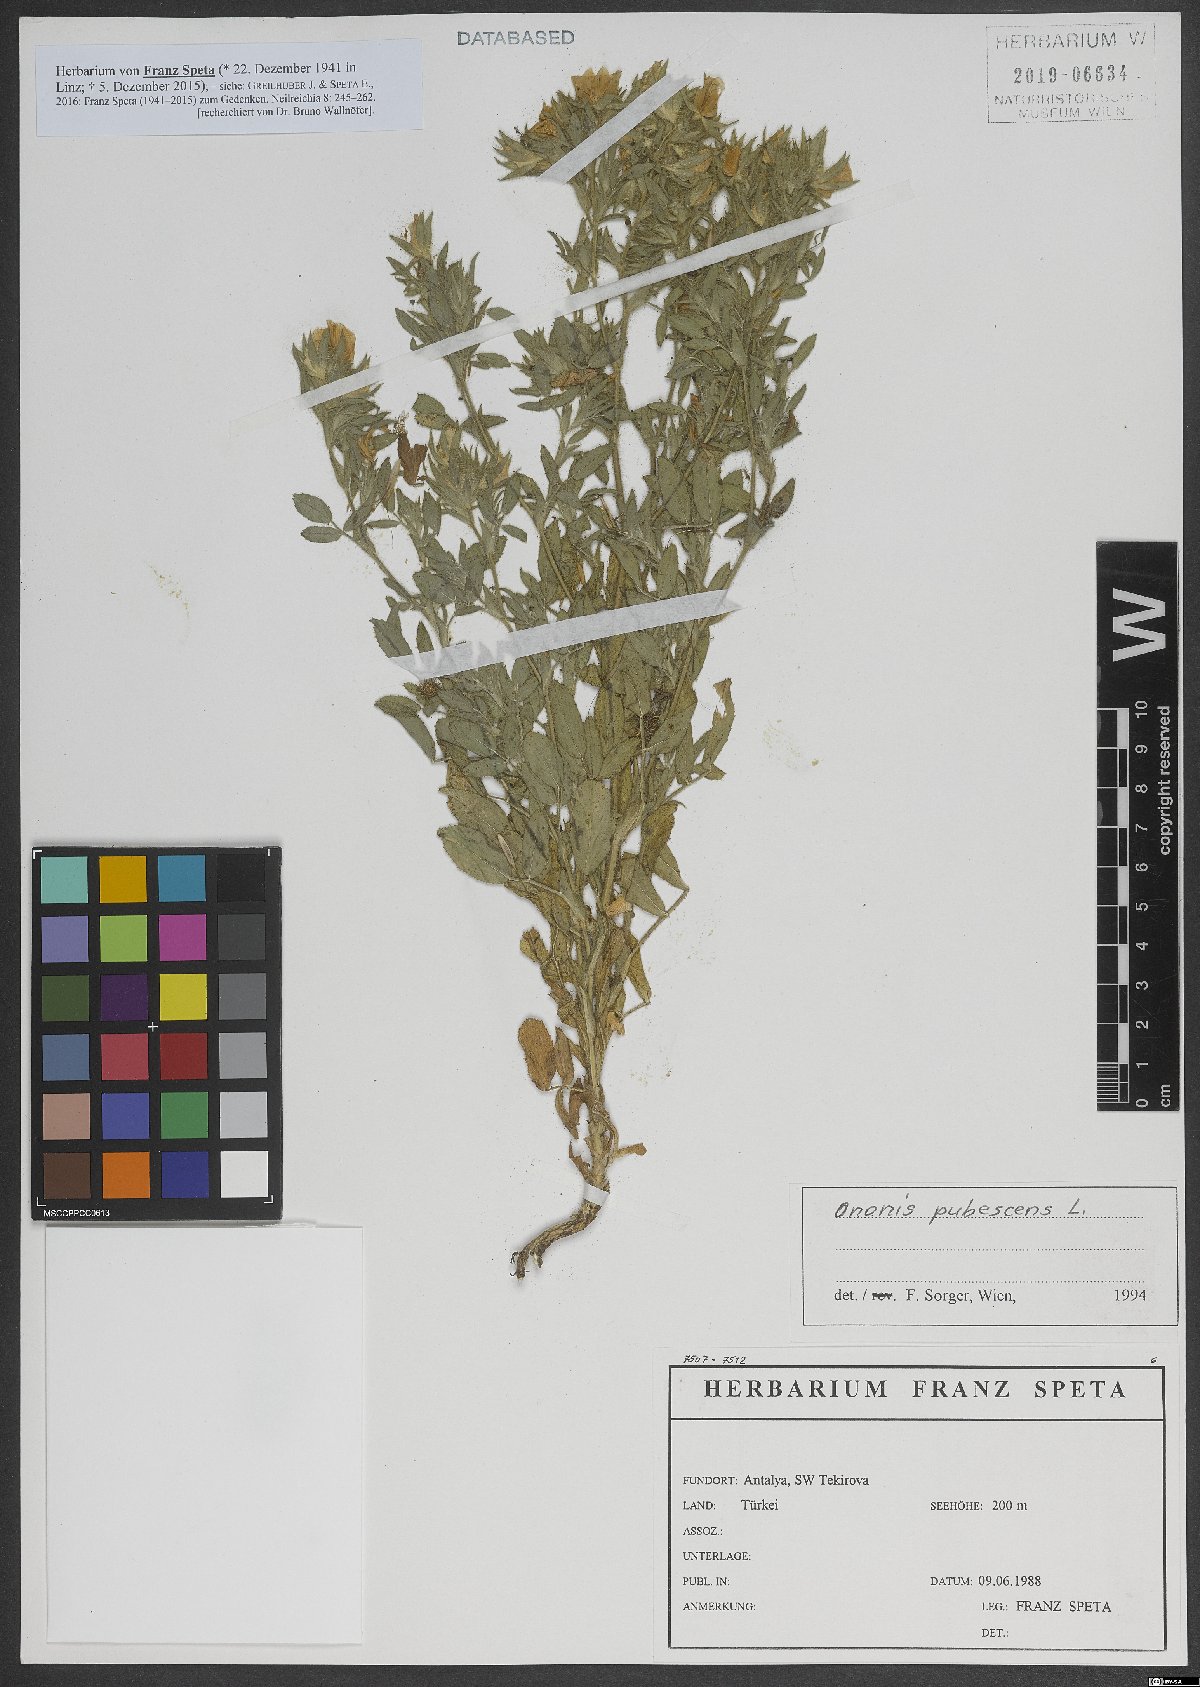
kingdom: Plantae
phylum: Tracheophyta
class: Magnoliopsida
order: Fabales
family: Fabaceae
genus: Ononis
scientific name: Ononis pubescens
